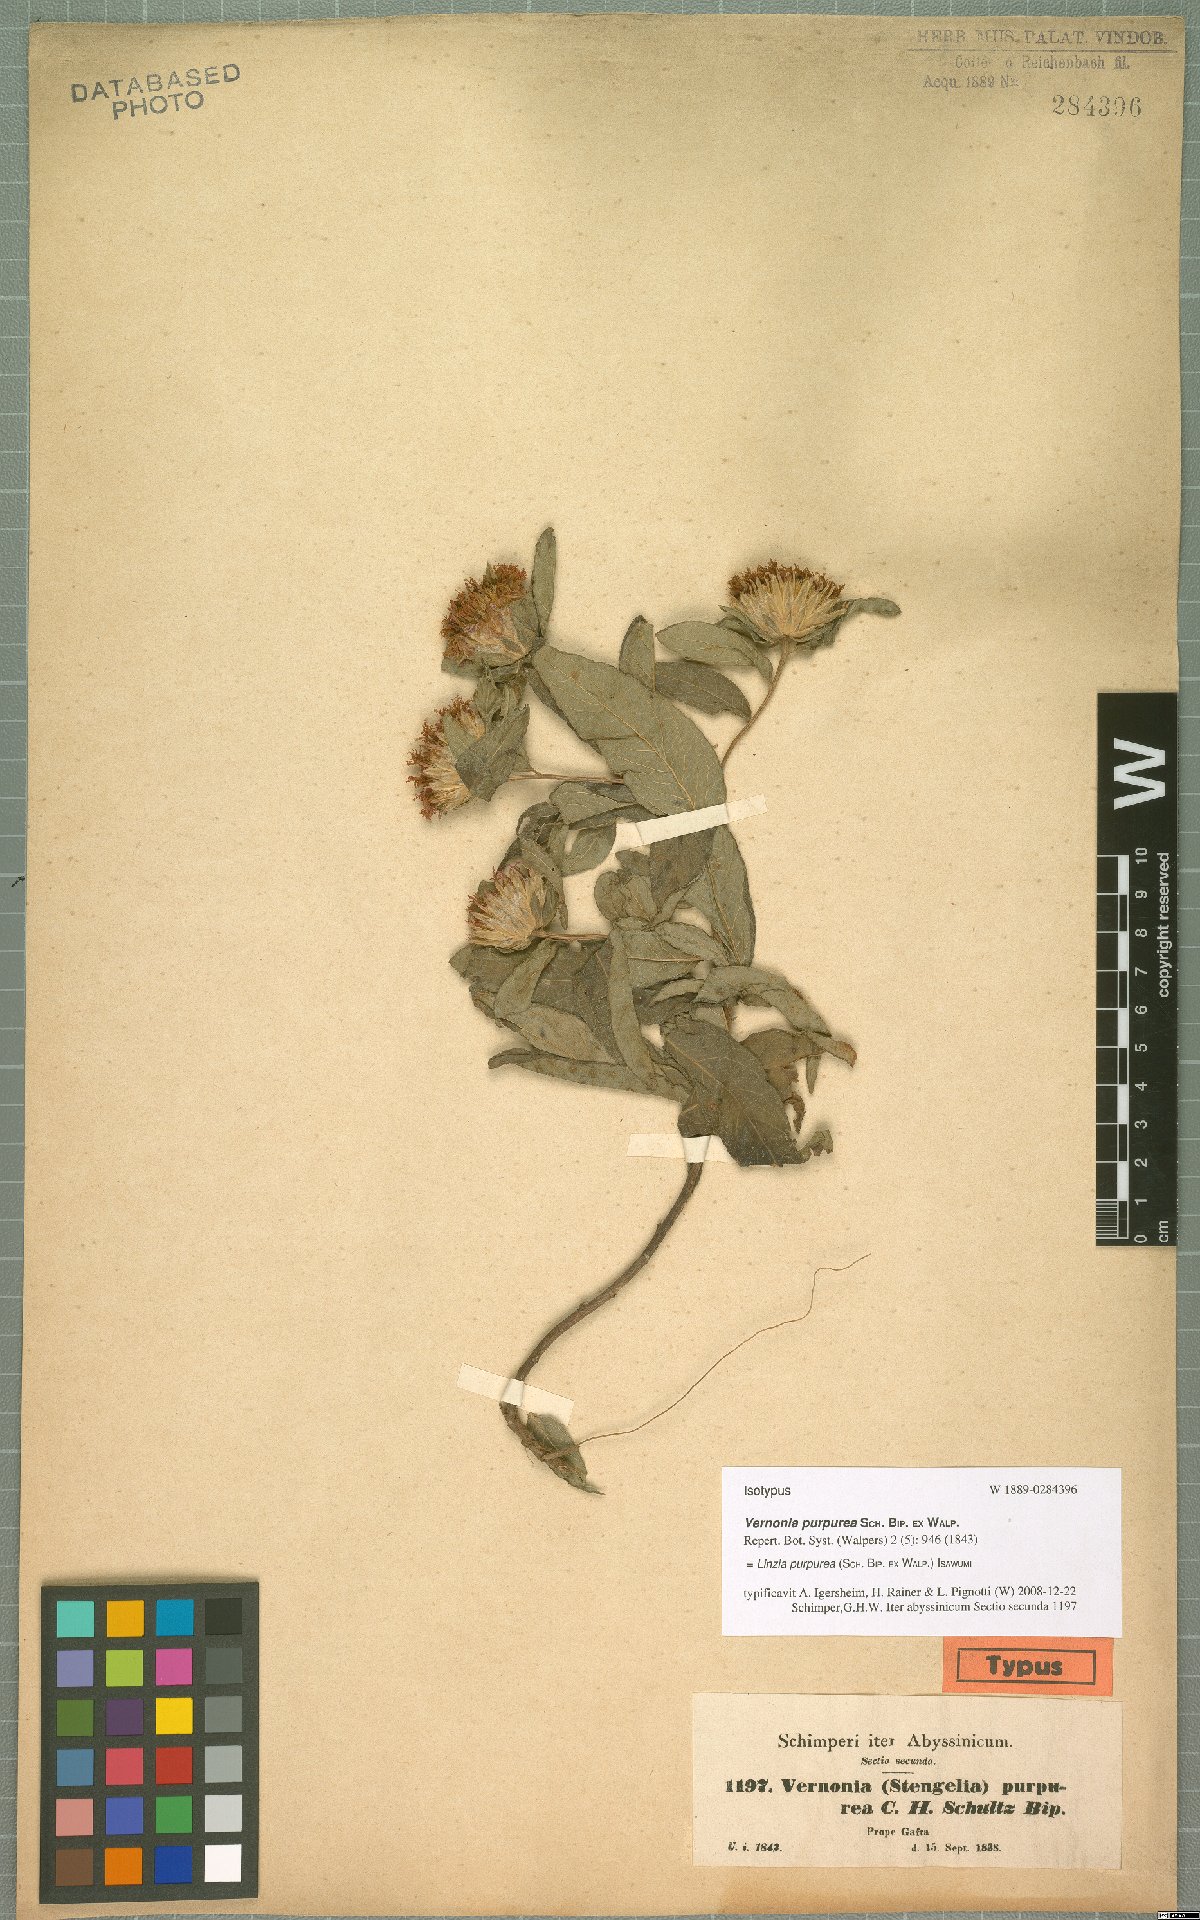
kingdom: Plantae
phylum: Tracheophyta
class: Magnoliopsida
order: Asterales
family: Asteraceae
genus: Nothovernonia
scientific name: Nothovernonia purpurea
